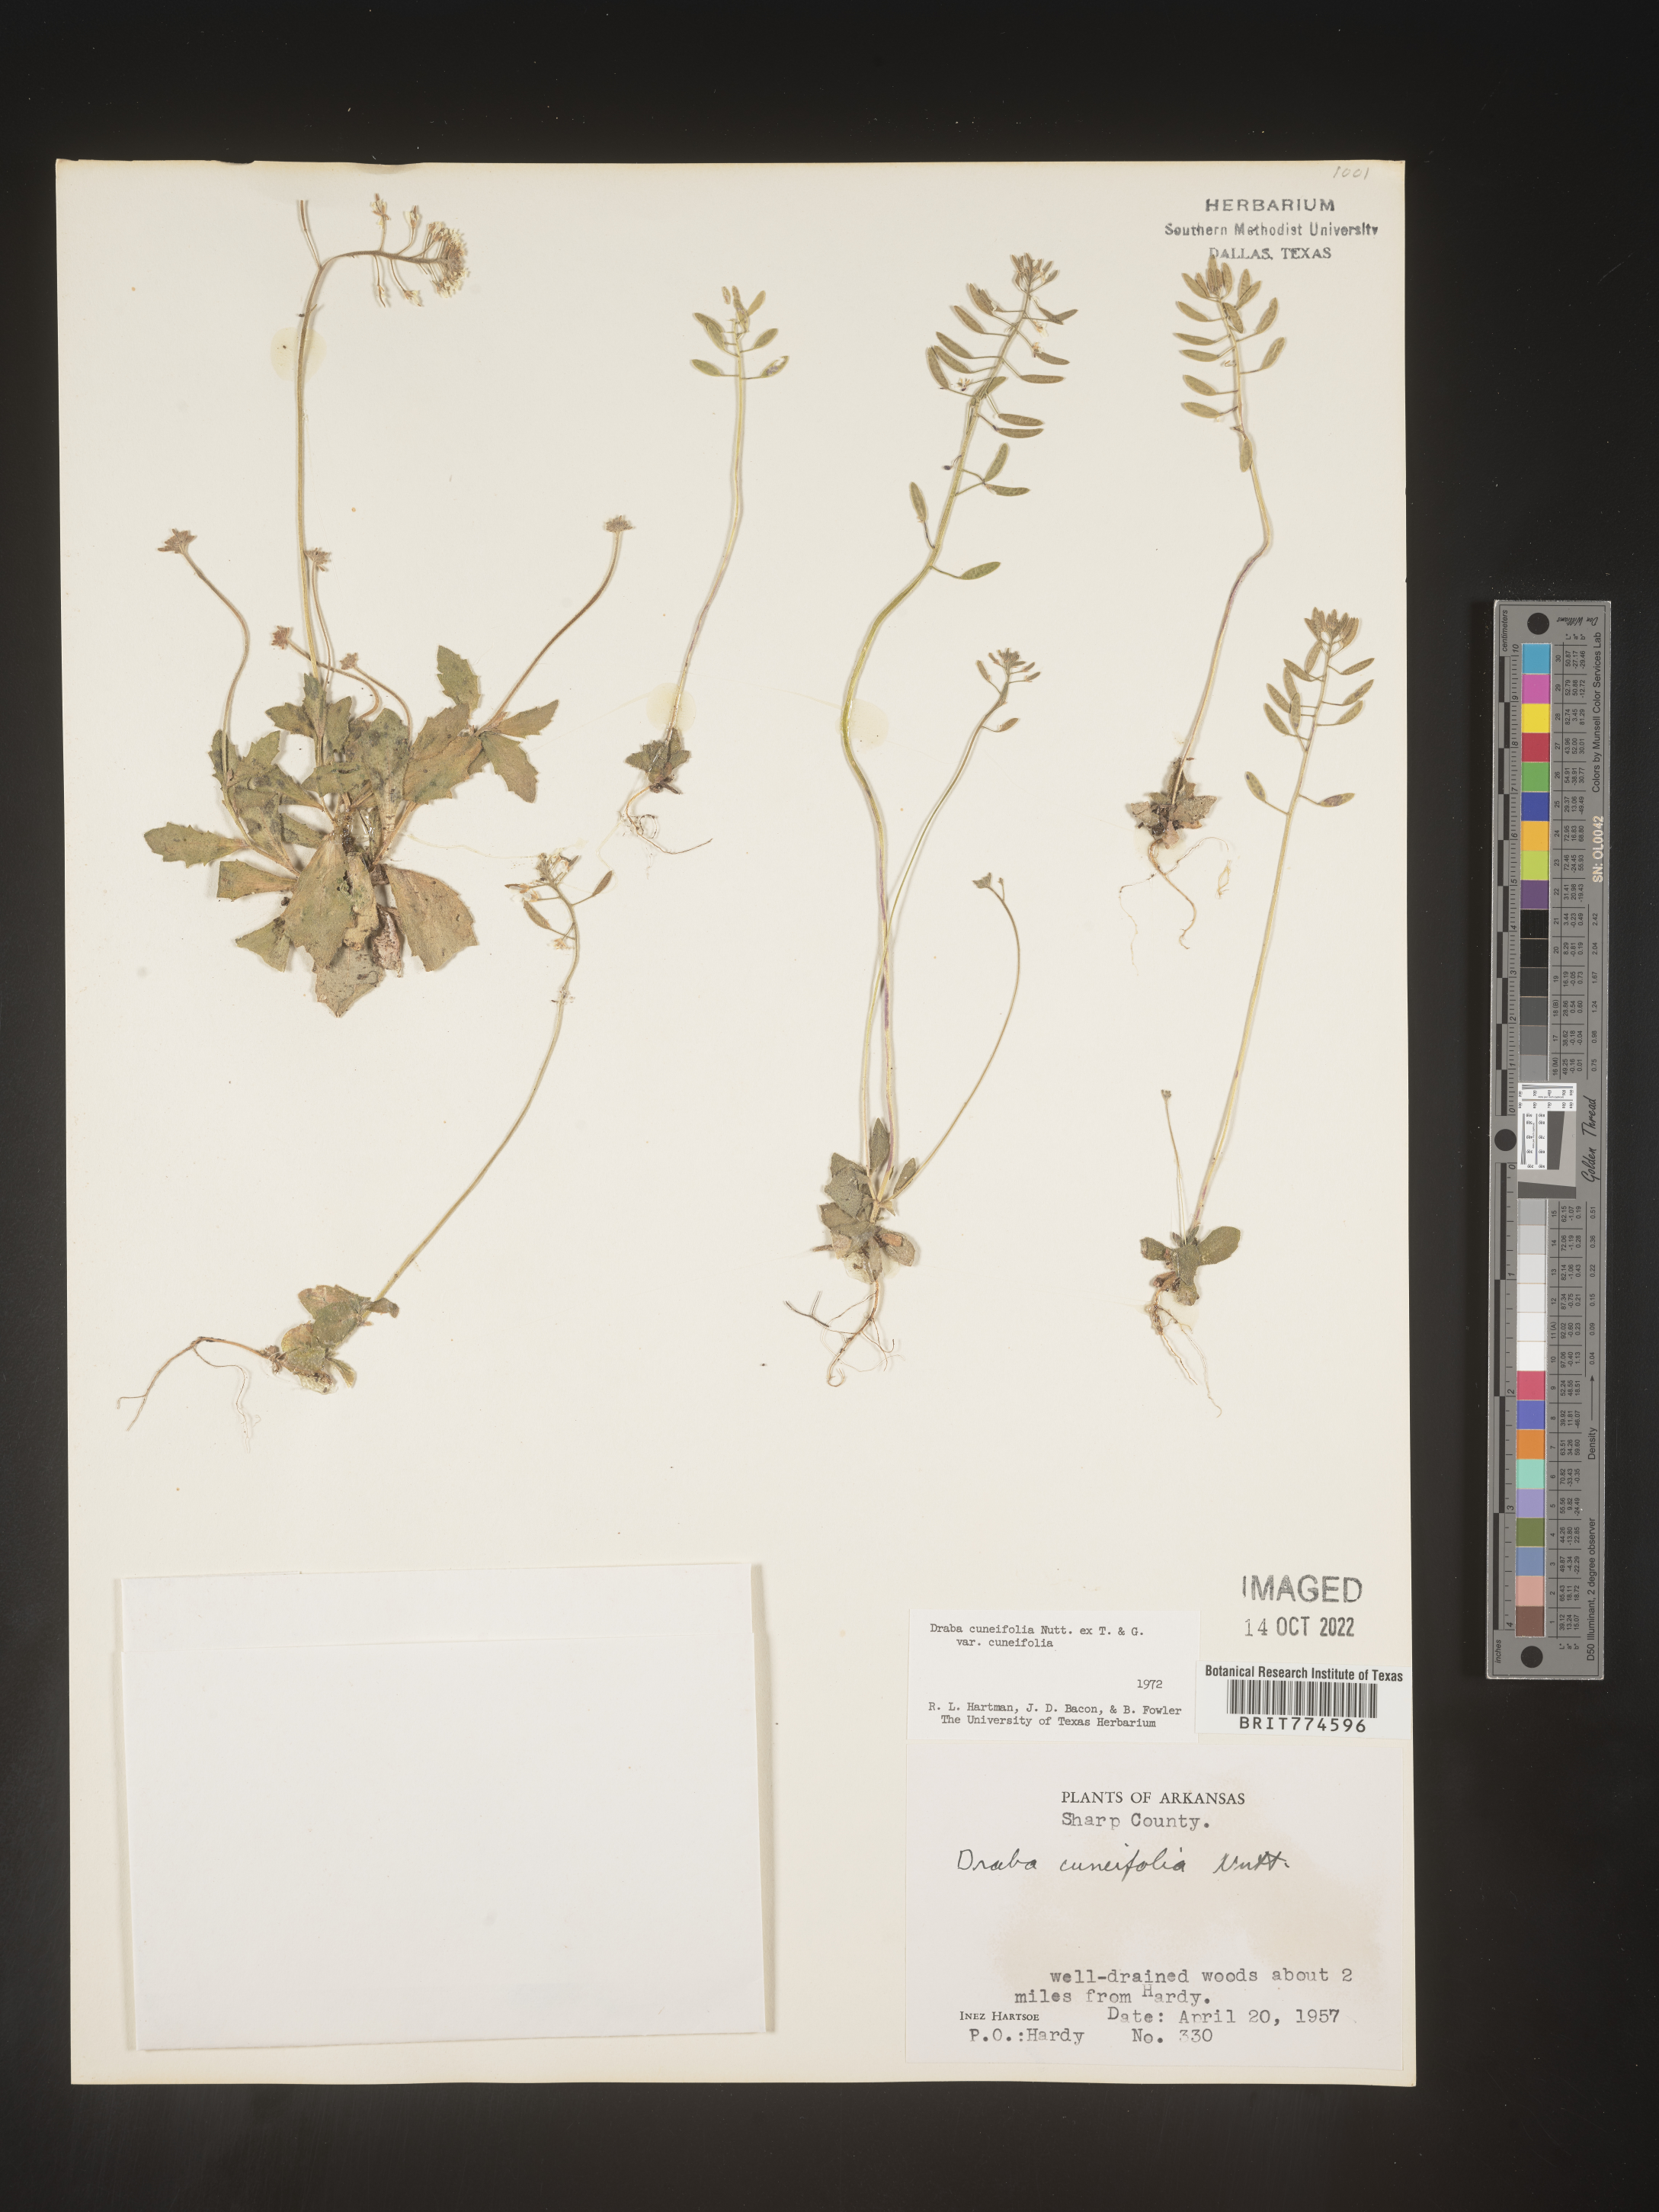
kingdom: Plantae
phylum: Tracheophyta
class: Magnoliopsida
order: Brassicales
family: Brassicaceae
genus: Tomostima
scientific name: Tomostima cuneifolia
